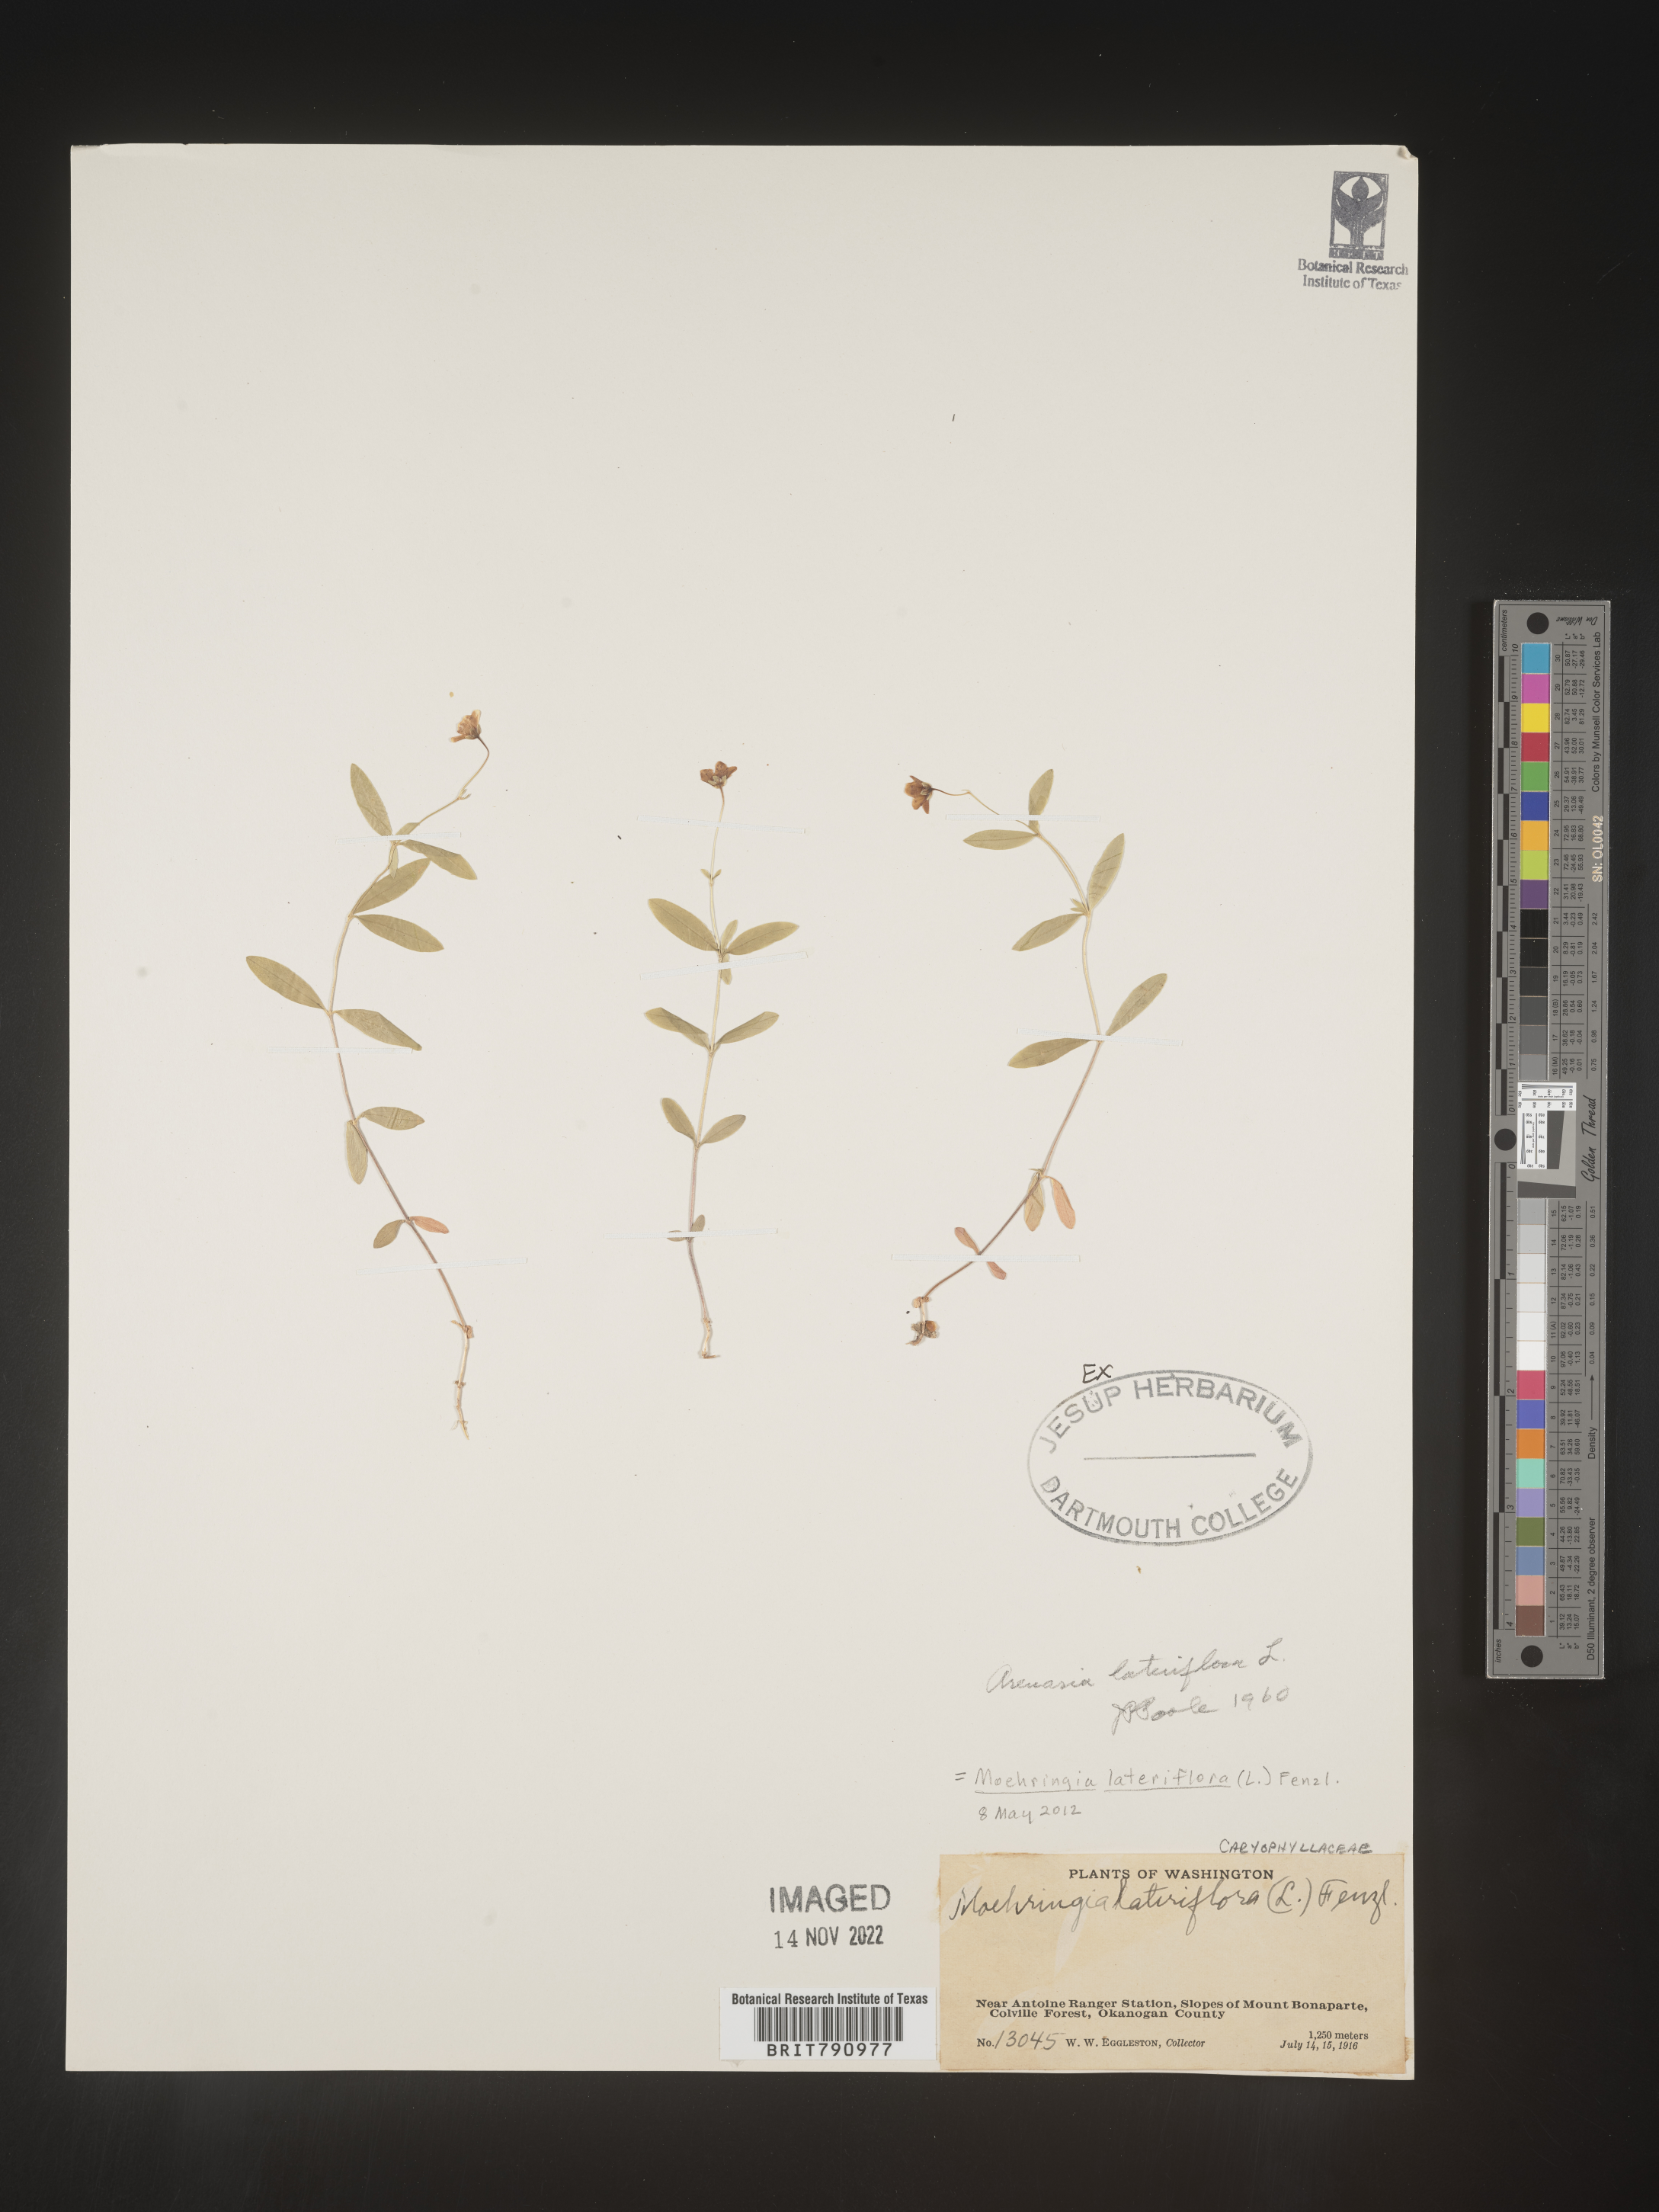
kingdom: Plantae
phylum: Tracheophyta
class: Magnoliopsida
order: Caryophyllales
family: Caryophyllaceae
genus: Moehringia
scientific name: Moehringia
